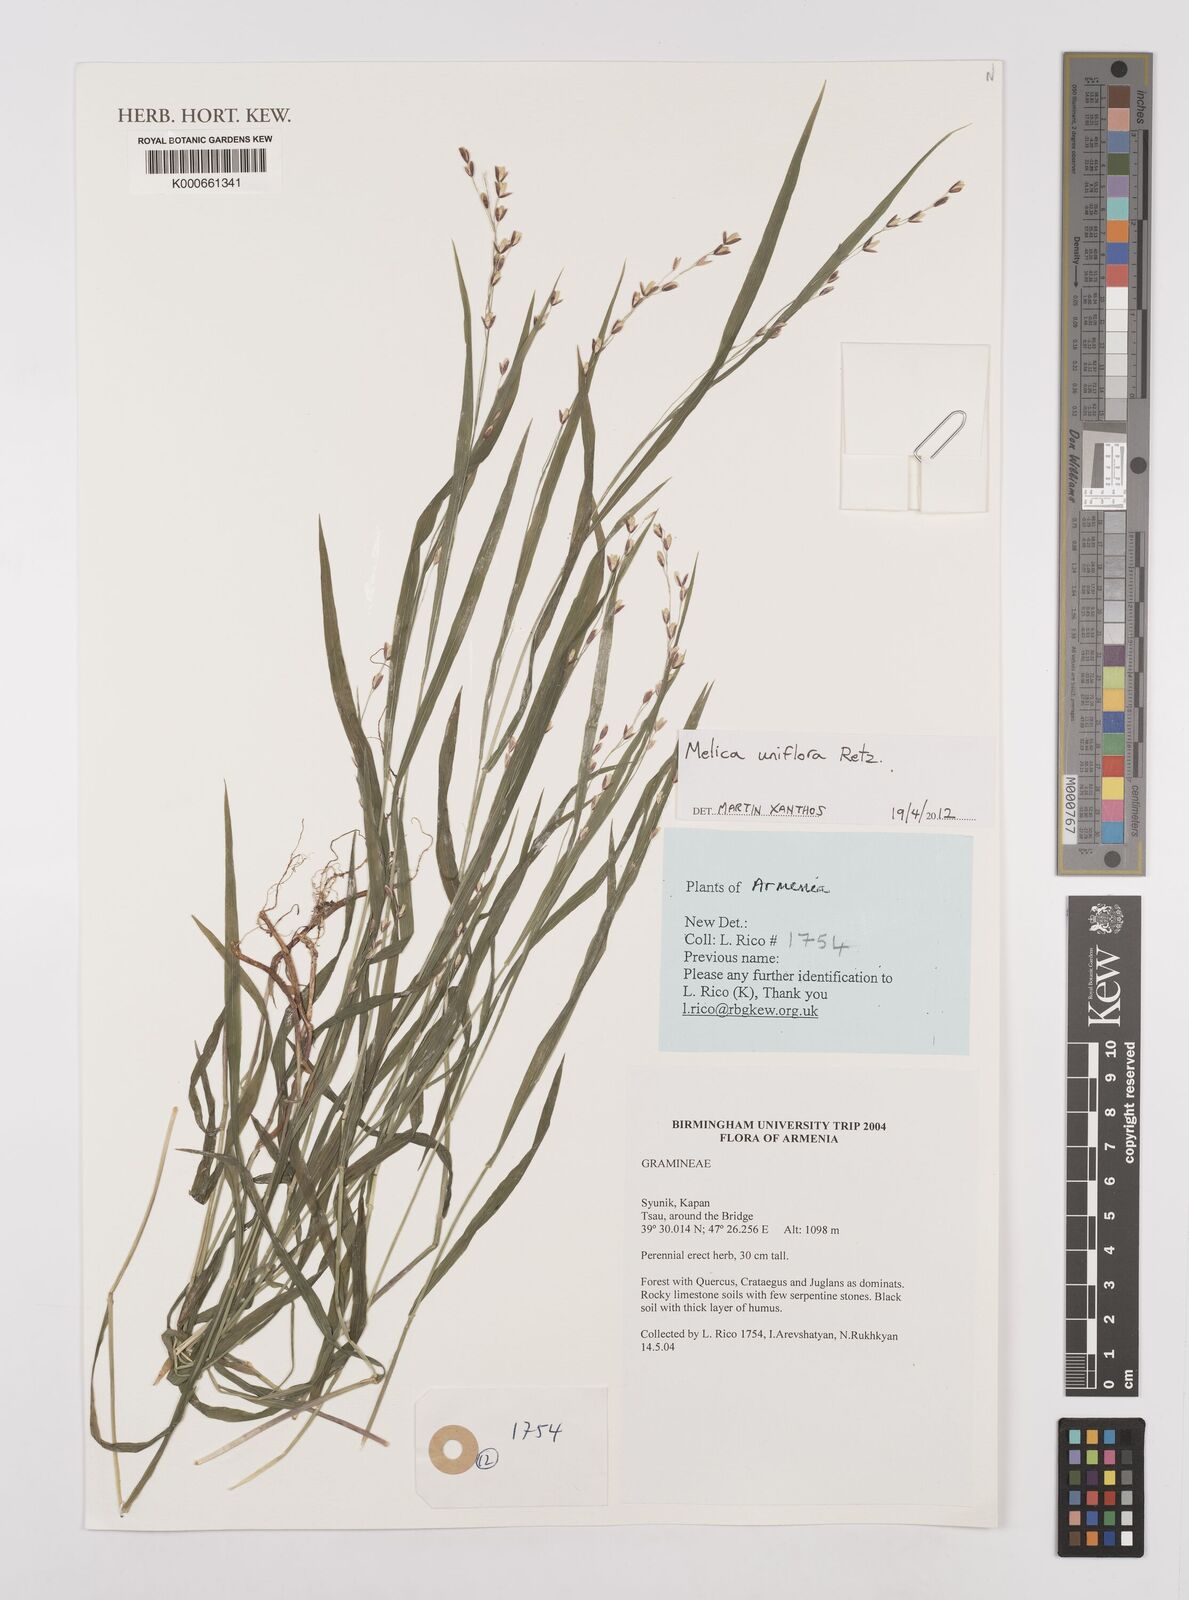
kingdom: Plantae
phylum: Tracheophyta
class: Liliopsida
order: Poales
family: Poaceae
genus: Melica
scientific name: Melica uniflora
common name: Wood melick
